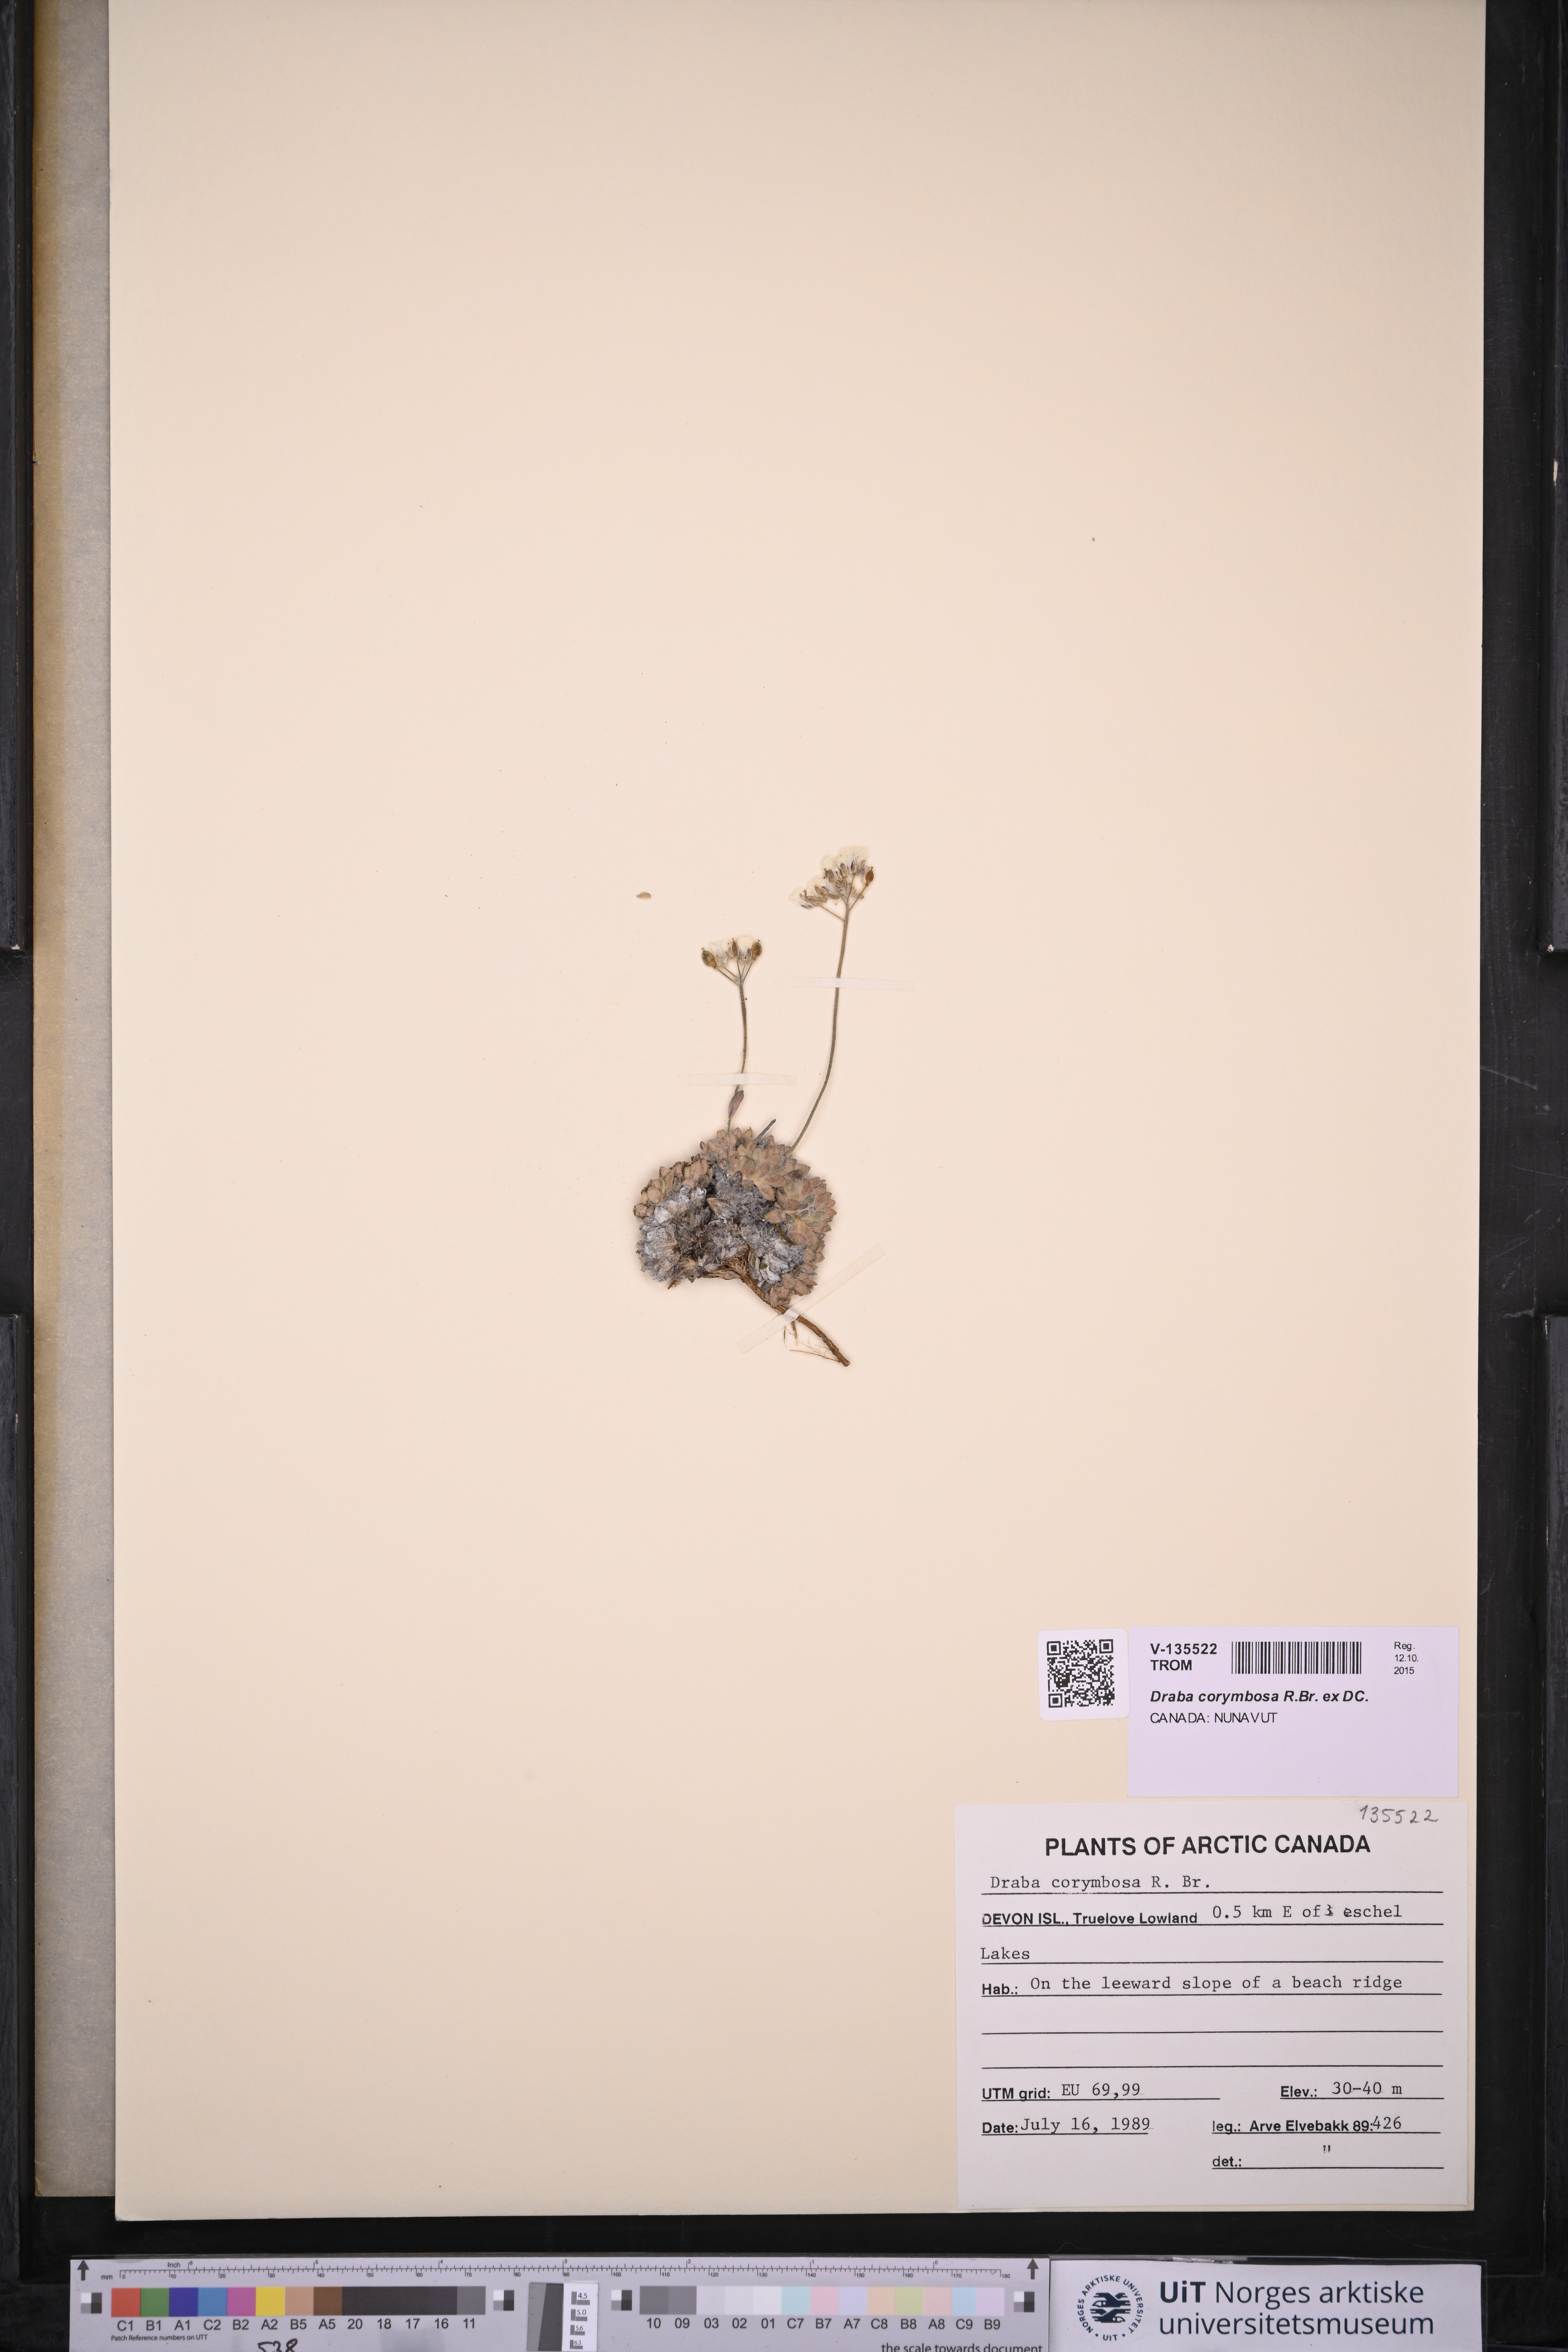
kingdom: Plantae
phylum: Tracheophyta
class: Magnoliopsida
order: Brassicales
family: Brassicaceae
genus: Draba
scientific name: Draba corymbosa
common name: Cushion whitlow-grass
